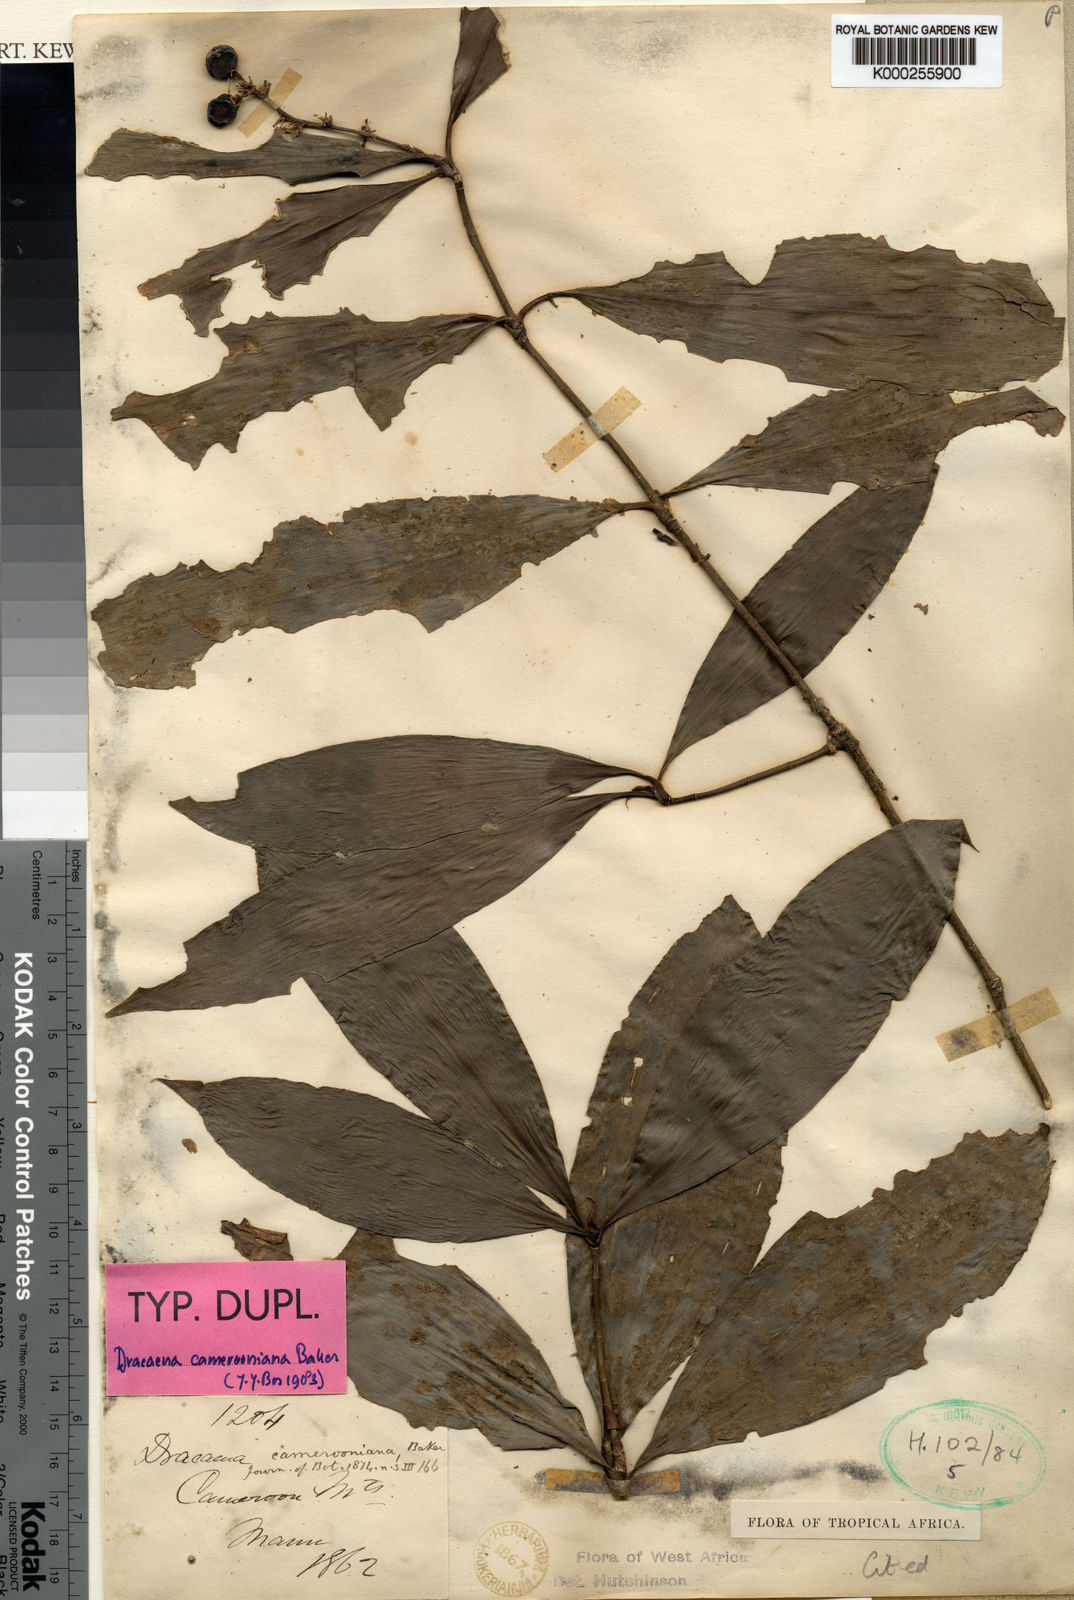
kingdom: Plantae
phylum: Tracheophyta
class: Liliopsida
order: Asparagales
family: Asparagaceae
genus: Dracaena
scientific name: Dracaena camerooniana
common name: Dragon tree
